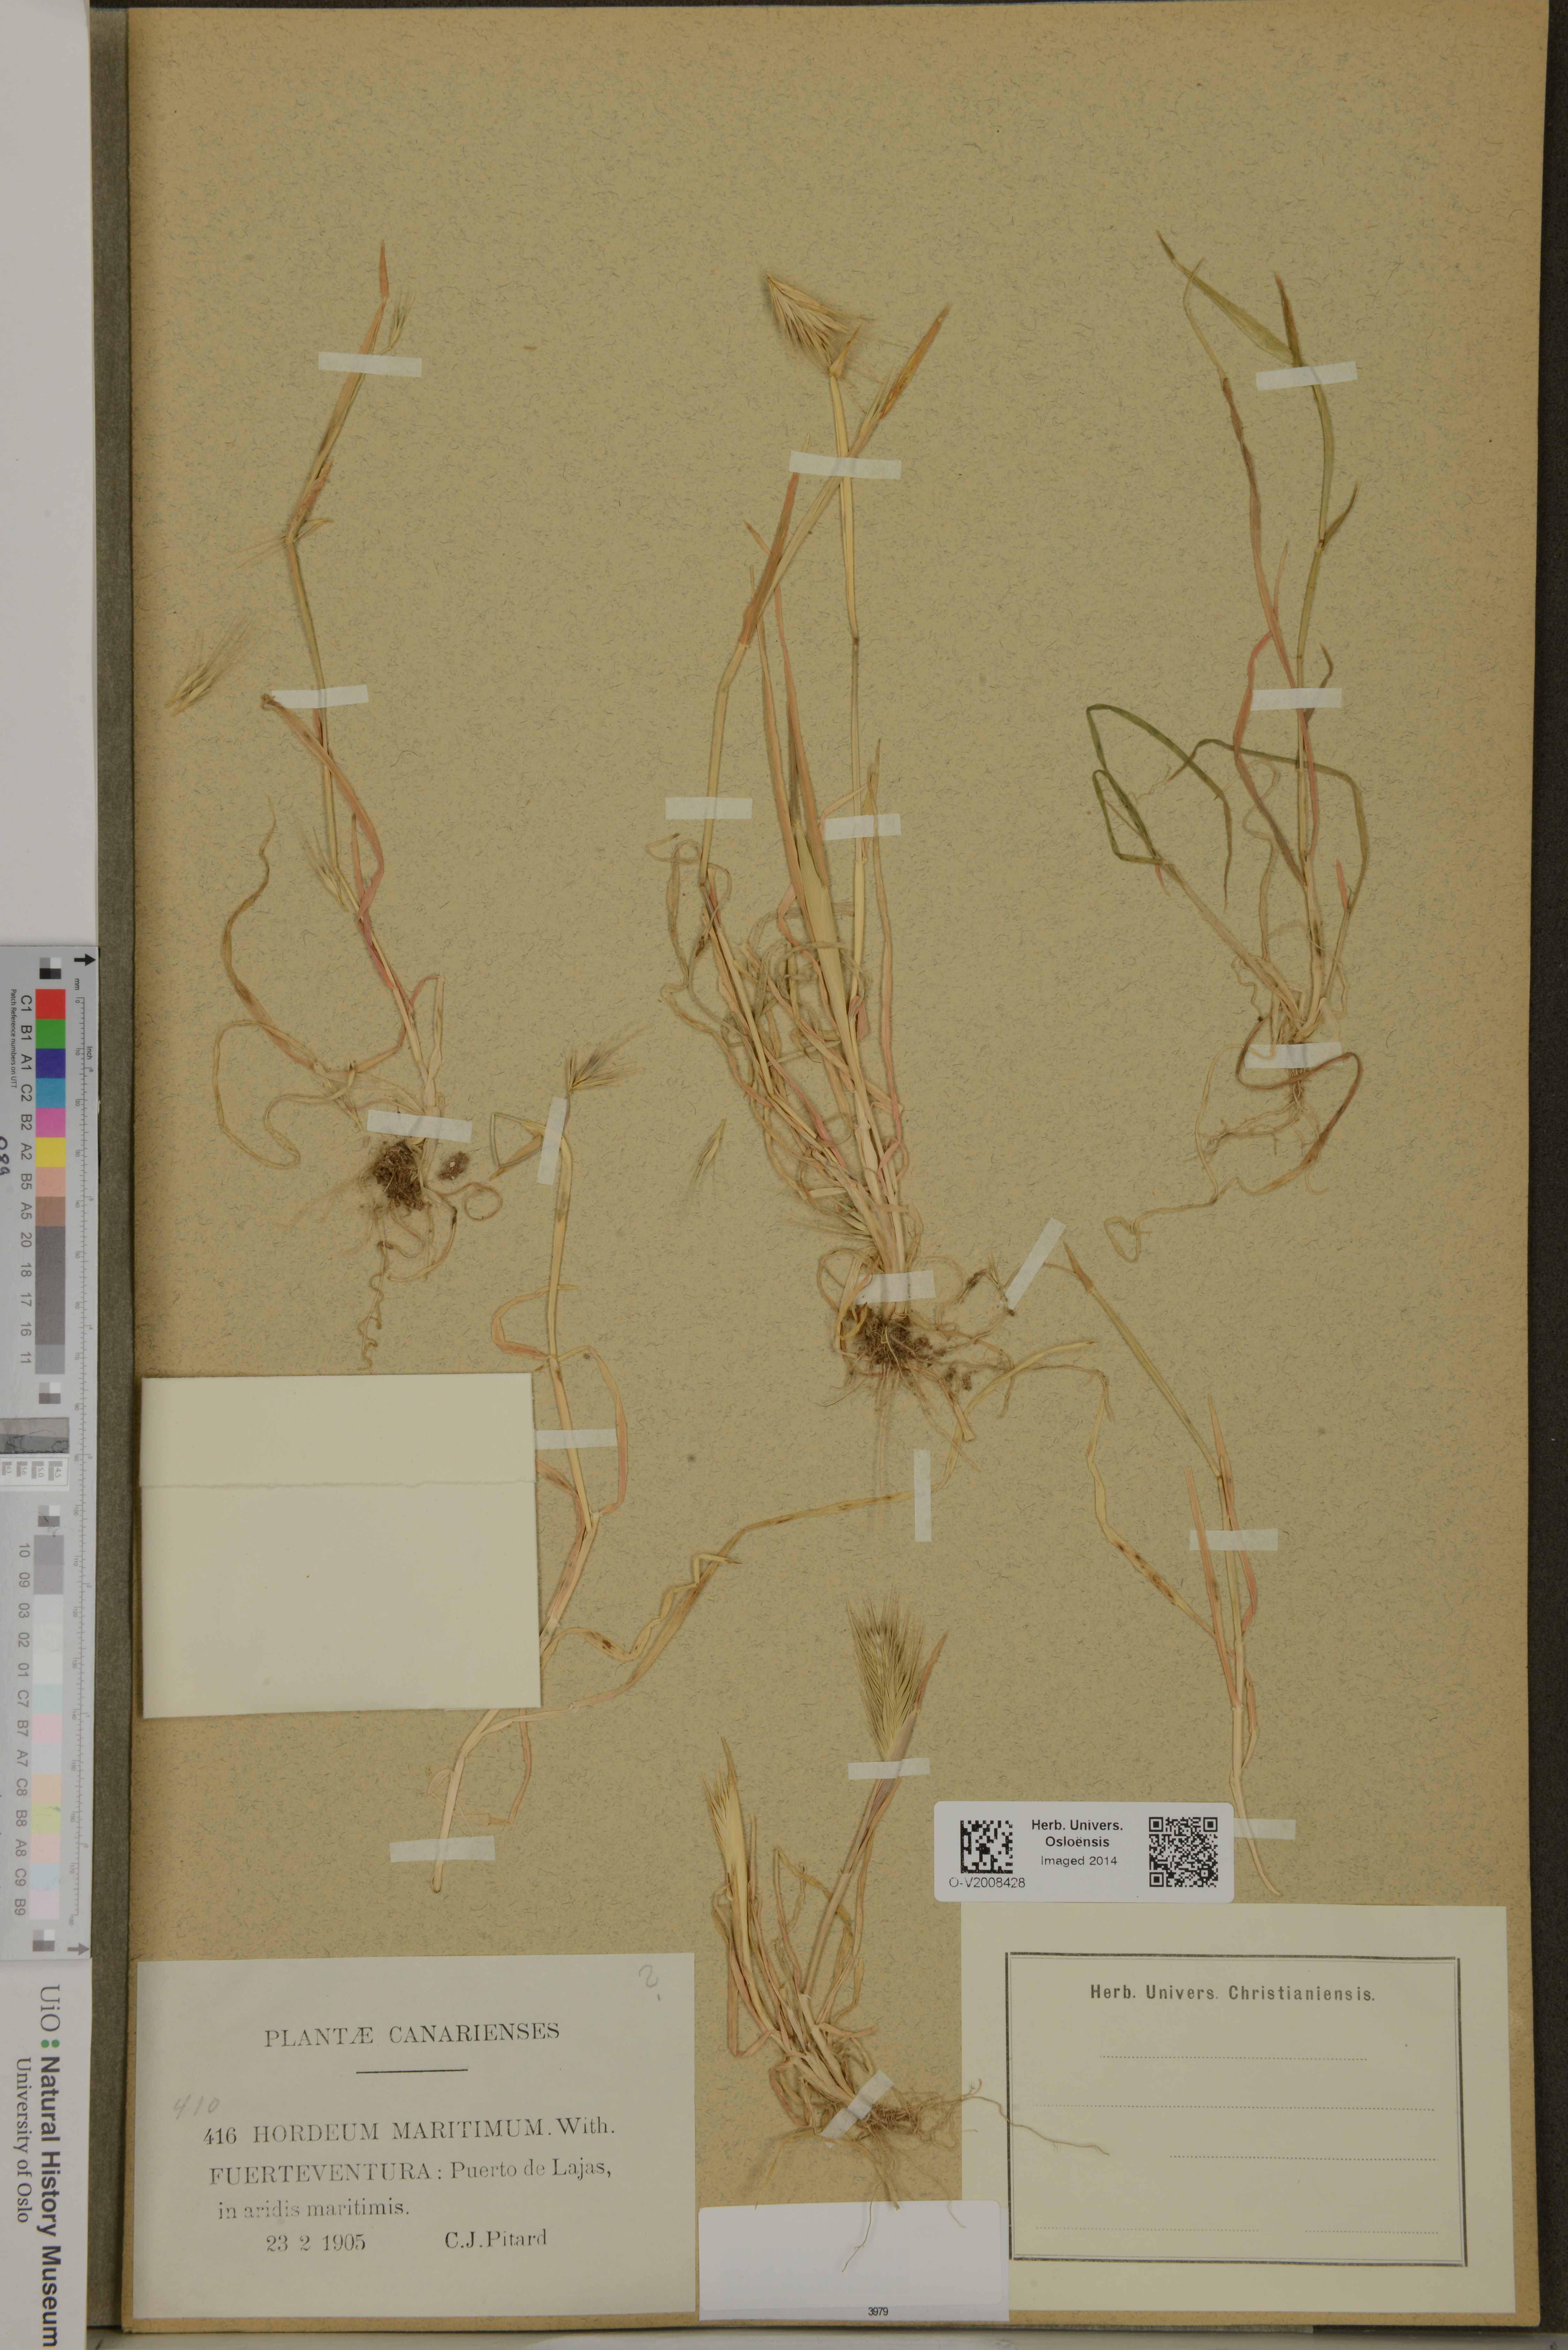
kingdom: Plantae
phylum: Tracheophyta
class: Liliopsida
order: Poales
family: Poaceae
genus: Hordeum
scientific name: Hordeum marinum
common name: Sea barley
